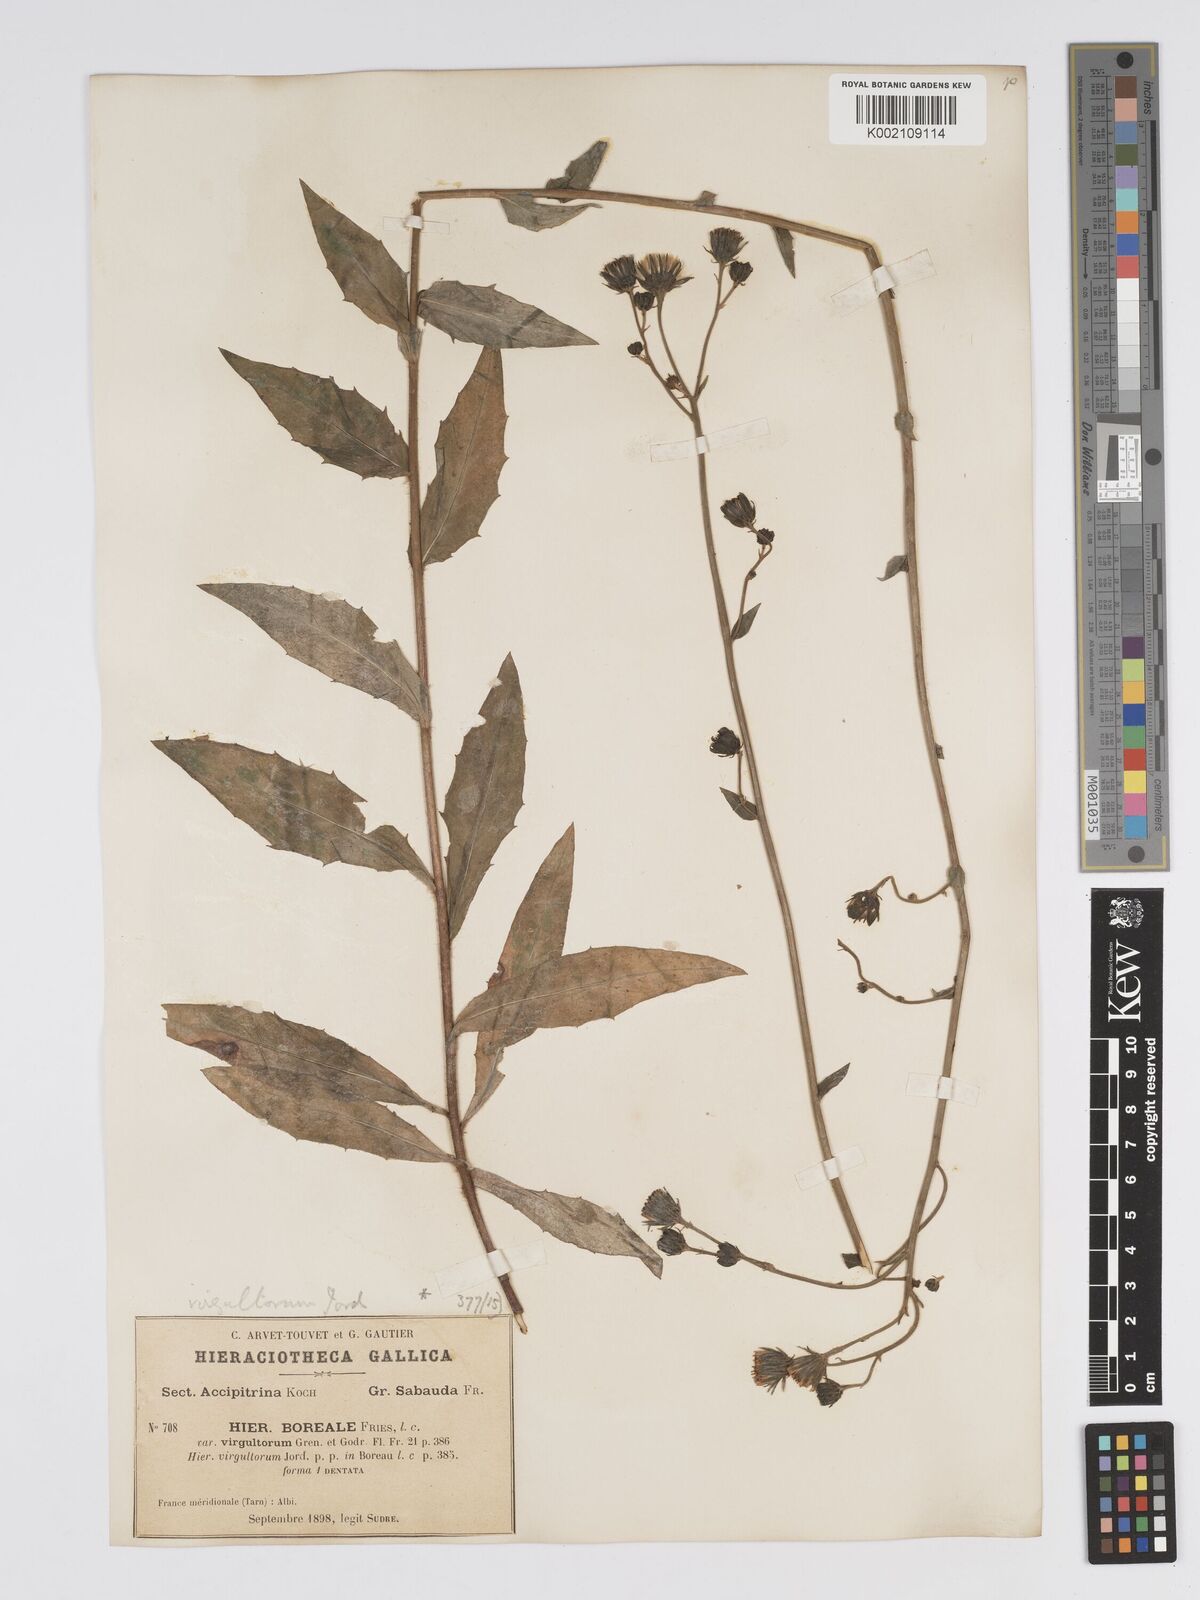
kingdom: Plantae
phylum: Tracheophyta
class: Magnoliopsida
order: Asterales
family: Asteraceae
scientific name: Asteraceae
